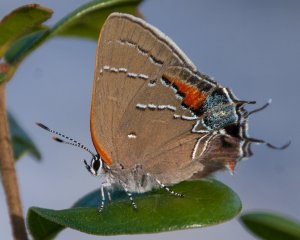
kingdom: Animalia
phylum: Arthropoda
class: Insecta
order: Lepidoptera
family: Lycaenidae
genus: Fixsenia
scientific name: Fixsenia favonius
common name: Oak Hairstreak
